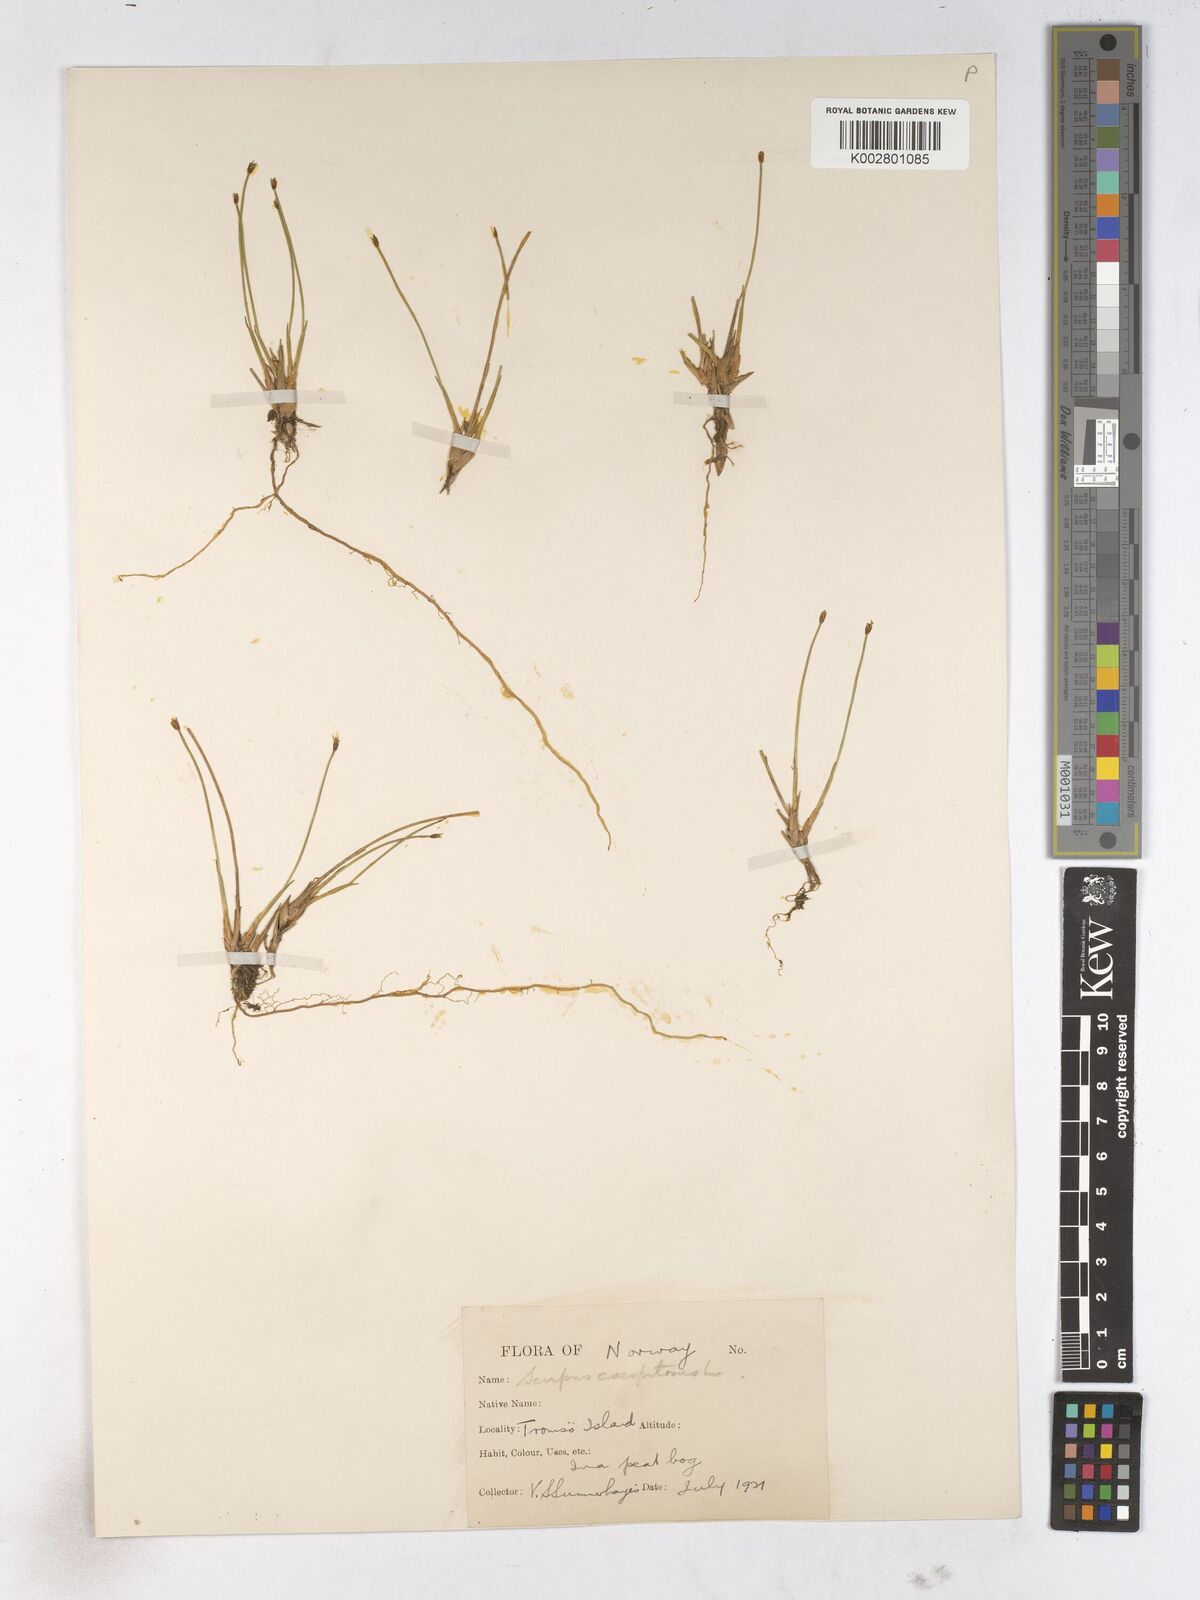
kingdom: Plantae
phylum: Tracheophyta
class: Liliopsida
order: Poales
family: Cyperaceae
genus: Trichophorum
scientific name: Trichophorum cespitosum
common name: Cespitose bulrush
